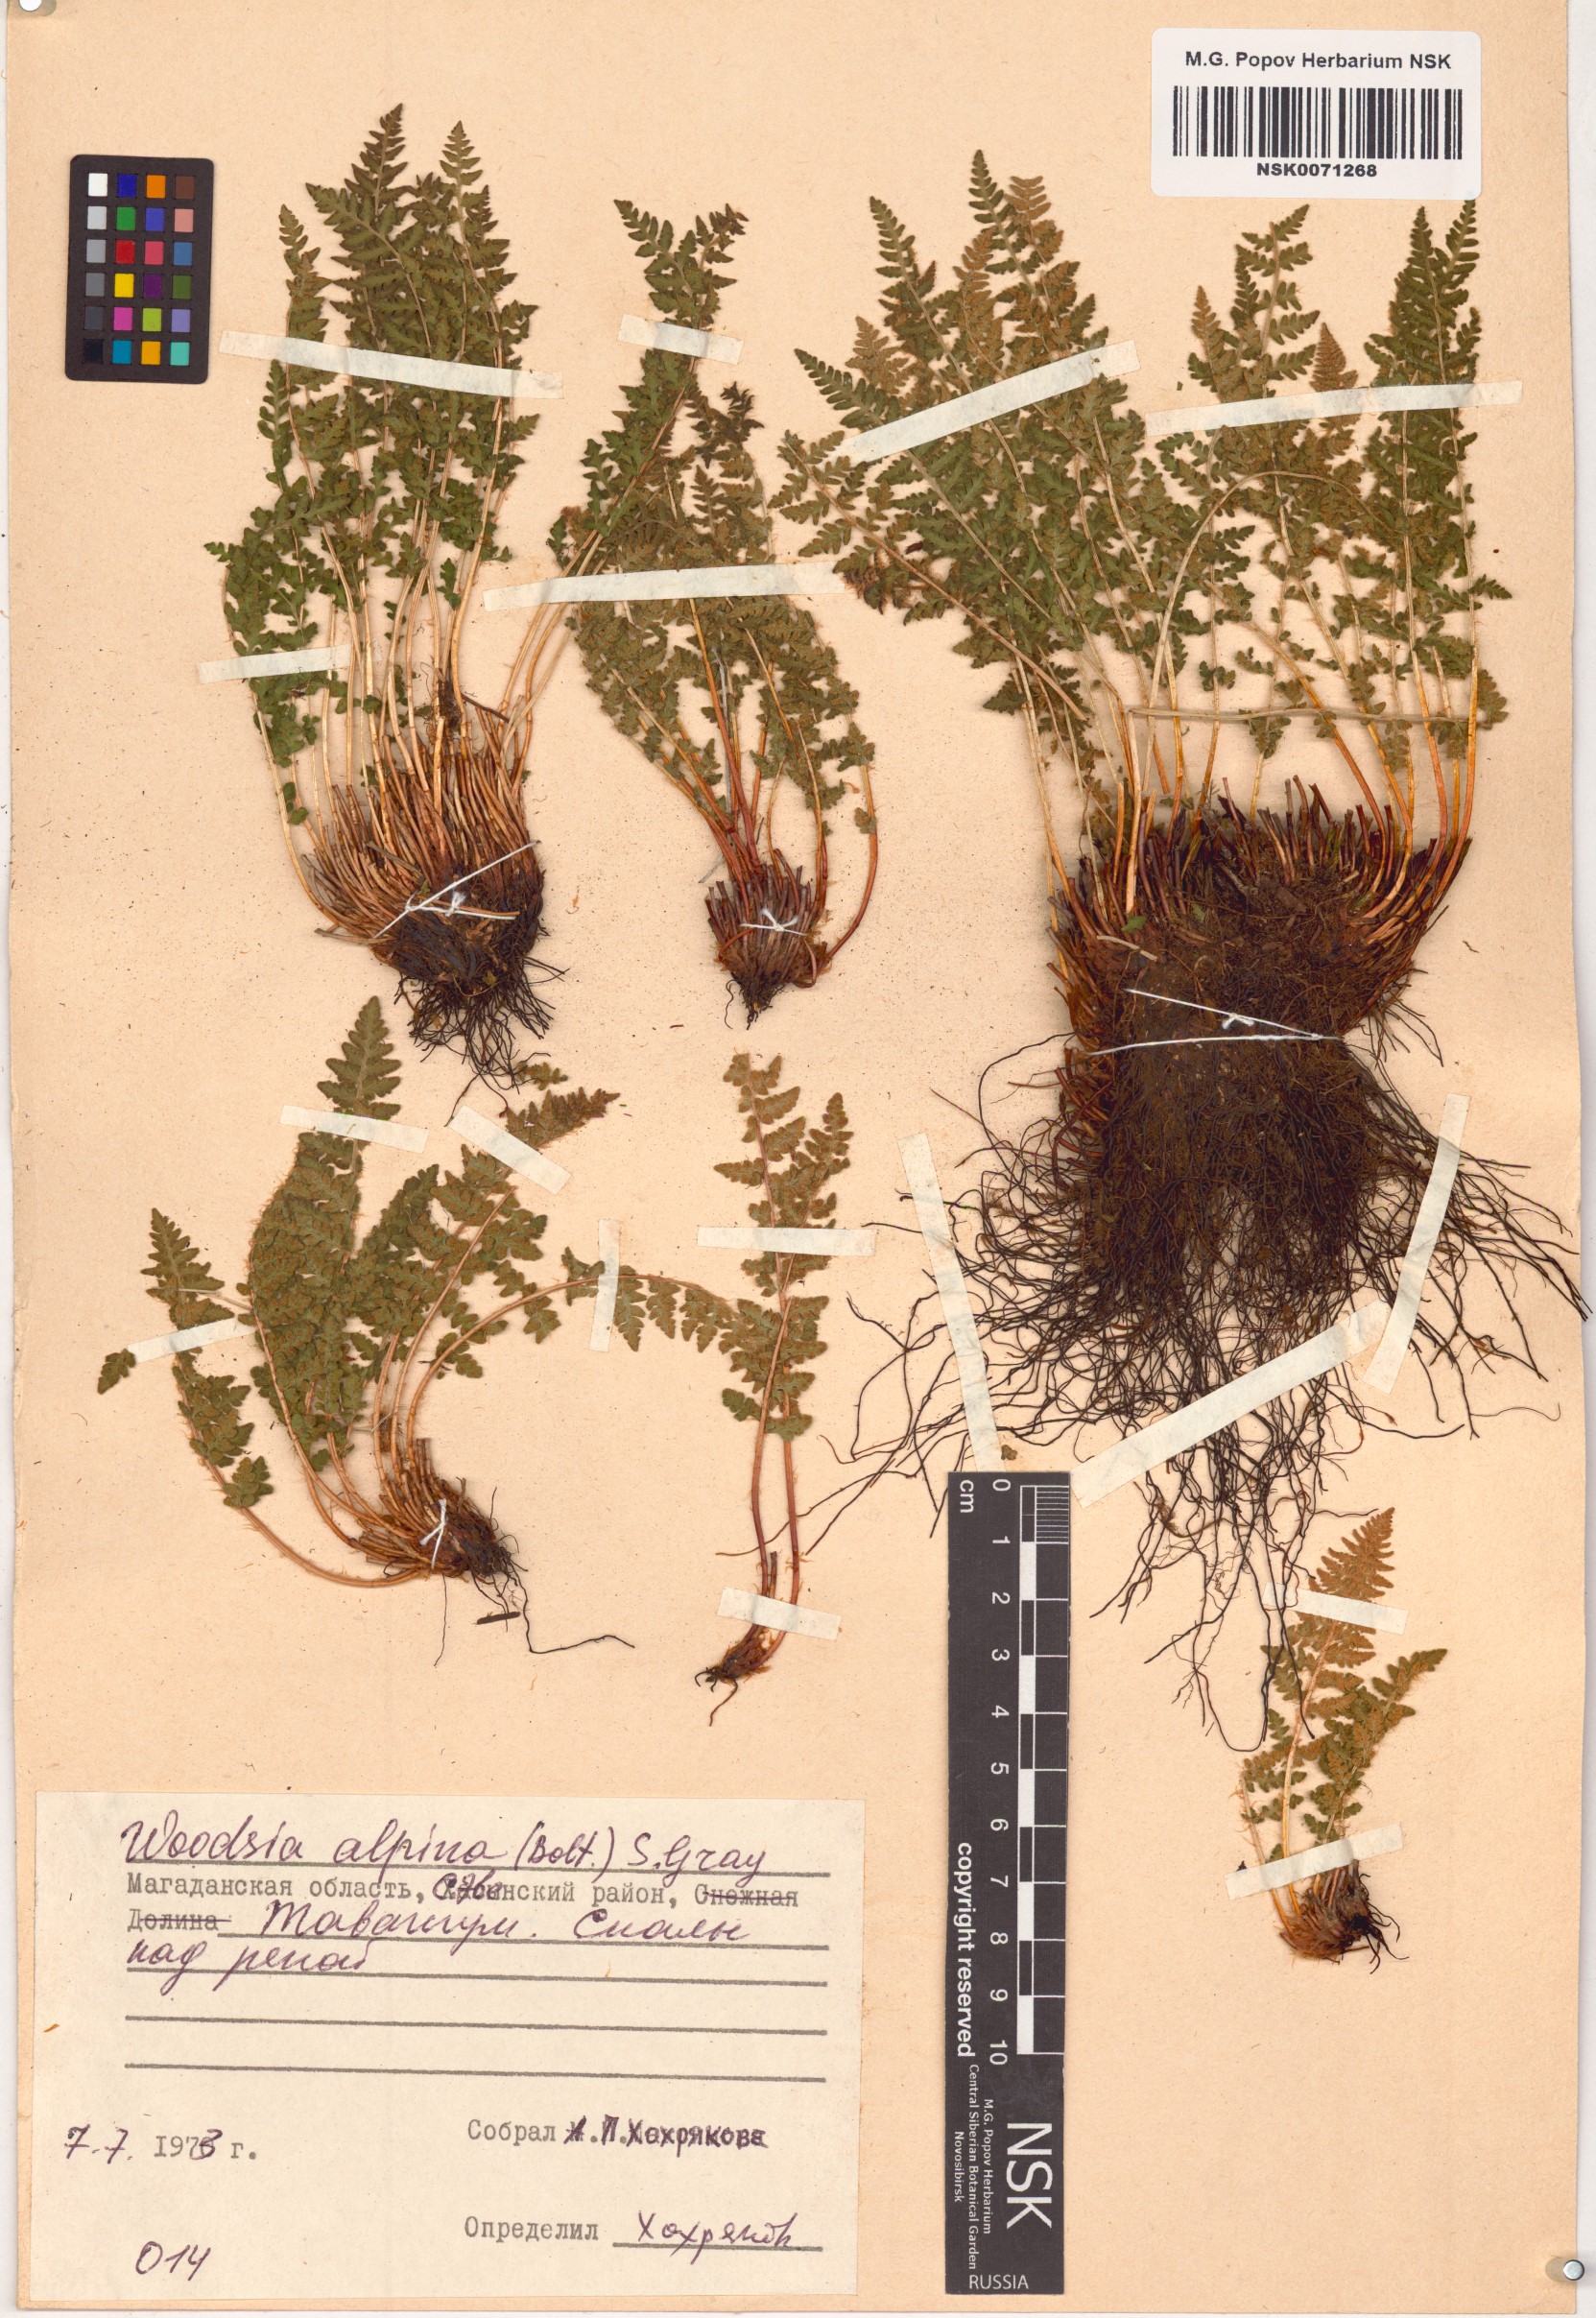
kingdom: Plantae
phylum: Tracheophyta
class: Polypodiopsida
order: Polypodiales
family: Woodsiaceae
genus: Woodsia
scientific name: Woodsia alpina
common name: Alpine woodsia
